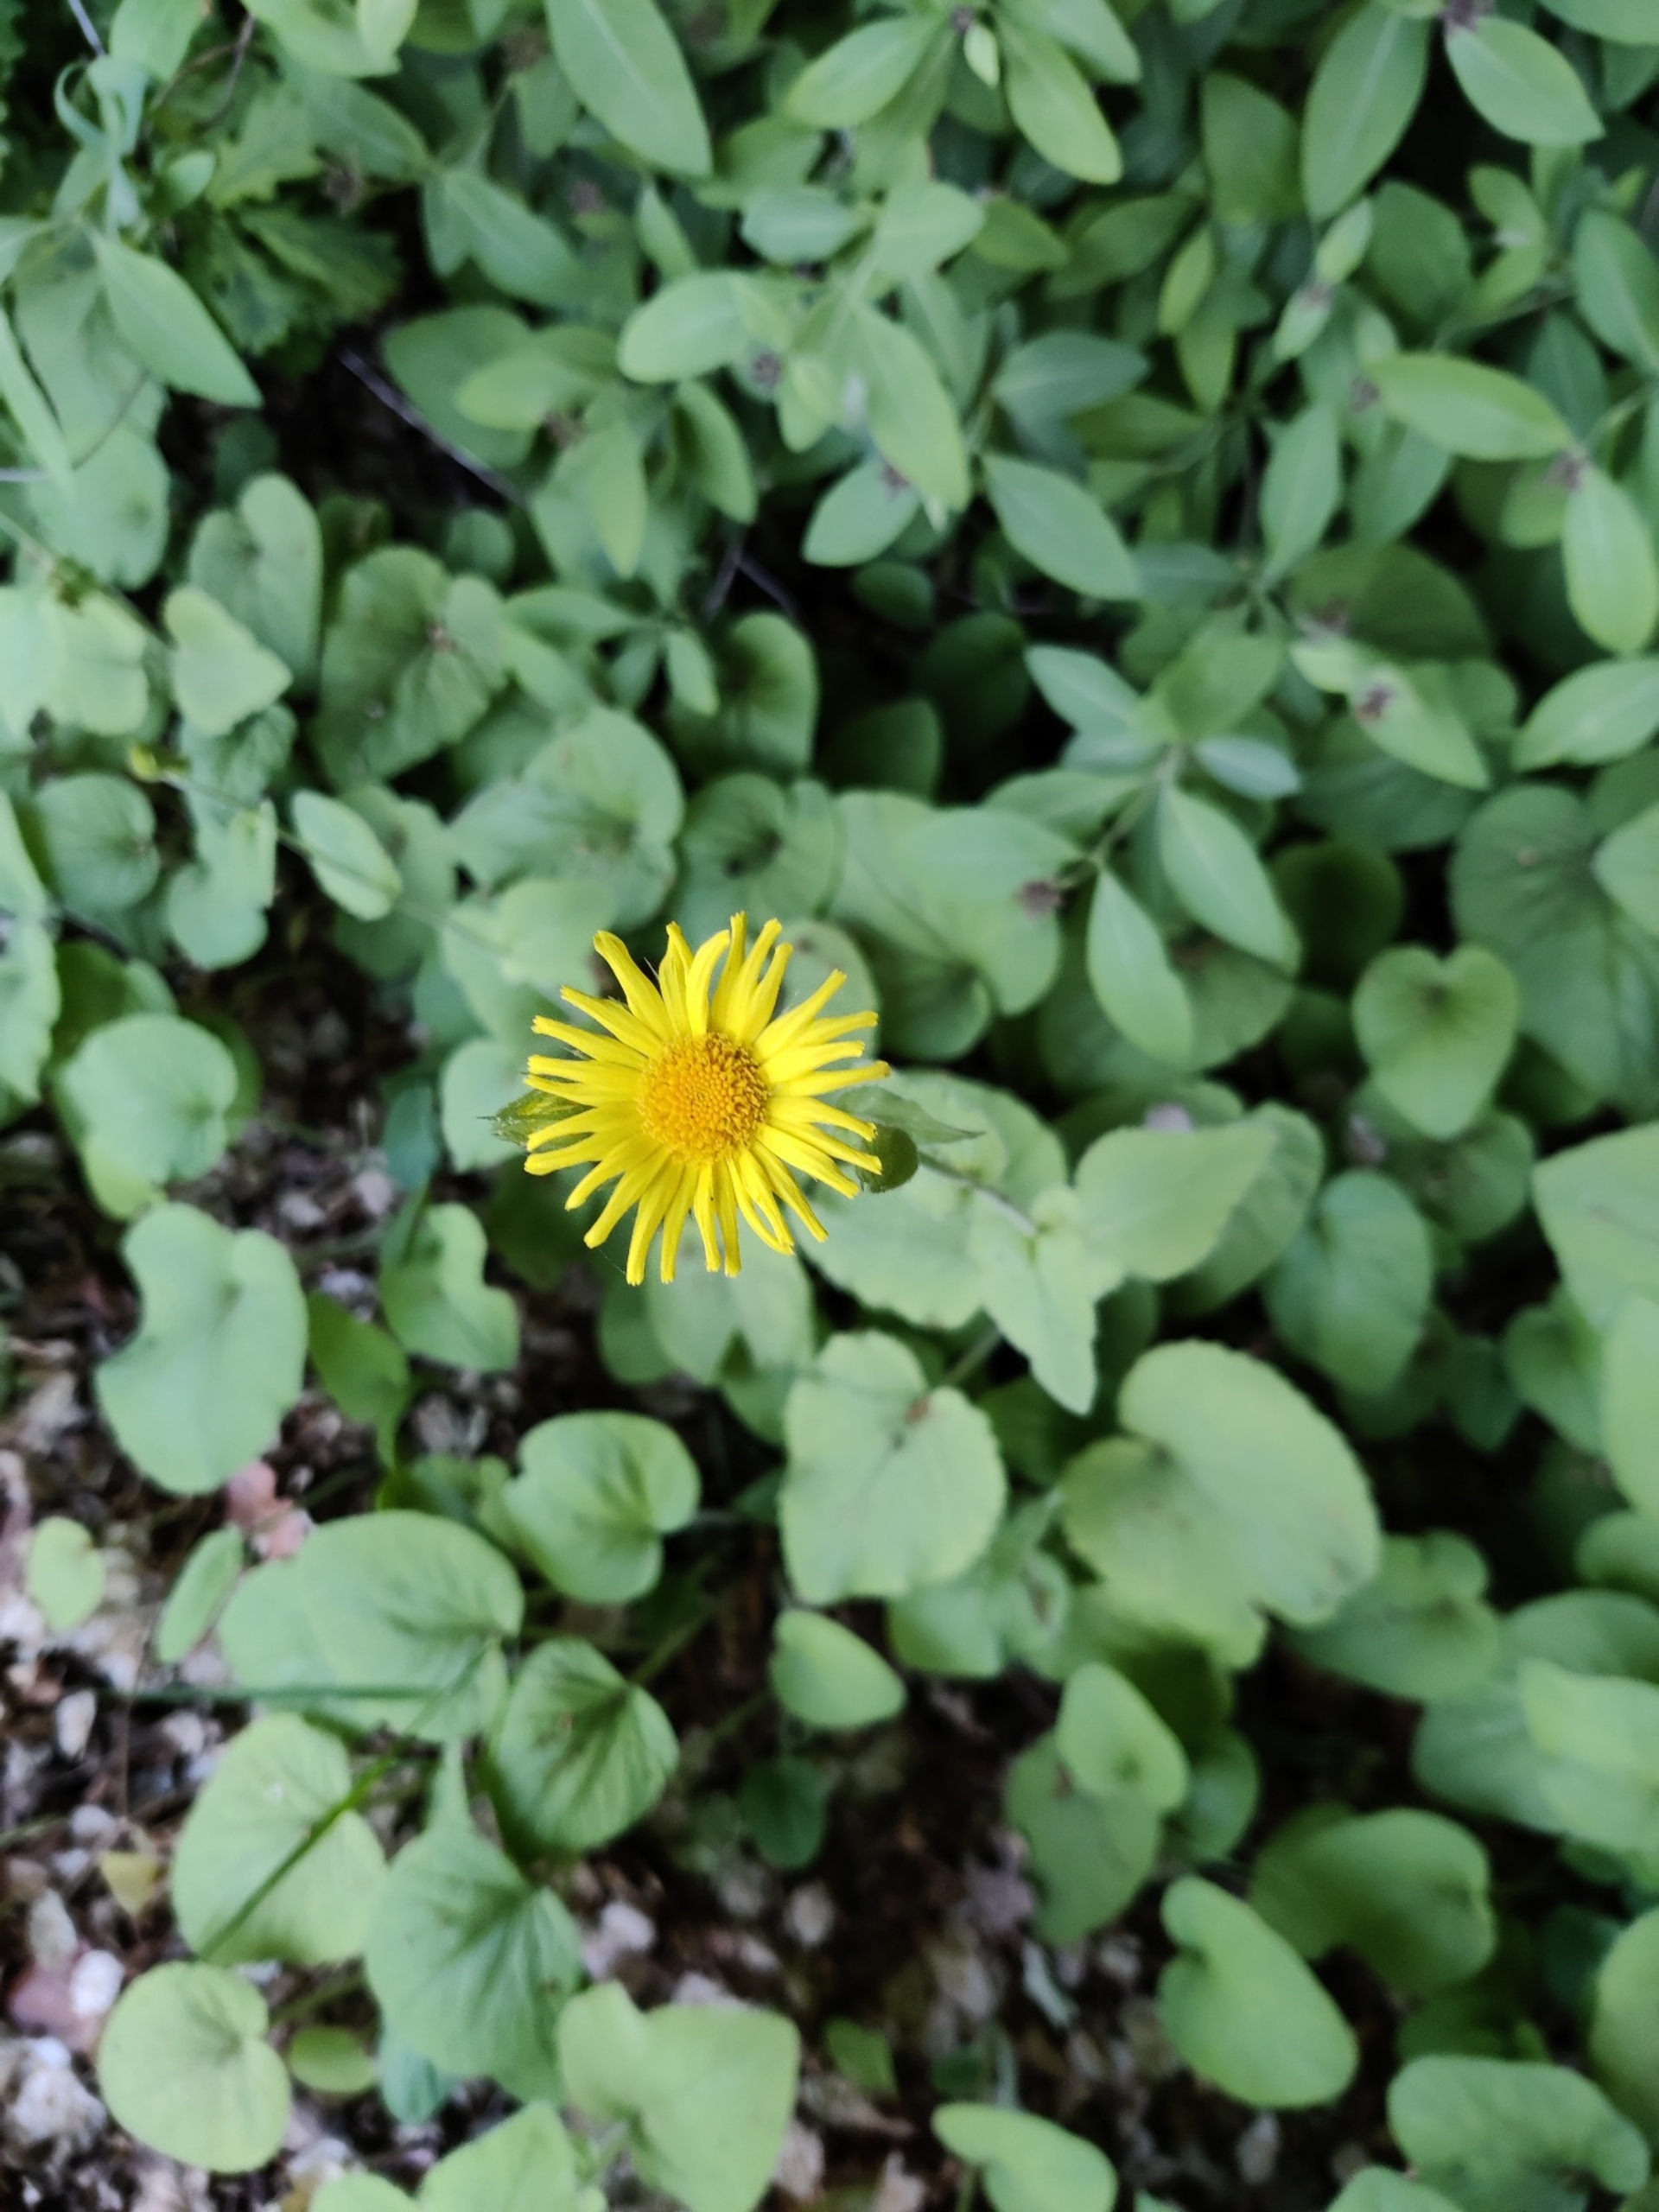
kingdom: Plantae
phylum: Tracheophyta
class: Magnoliopsida
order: Asterales
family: Asteraceae
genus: Doronicum
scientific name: Doronicum pardalianches
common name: Hjertebladet gemserod
